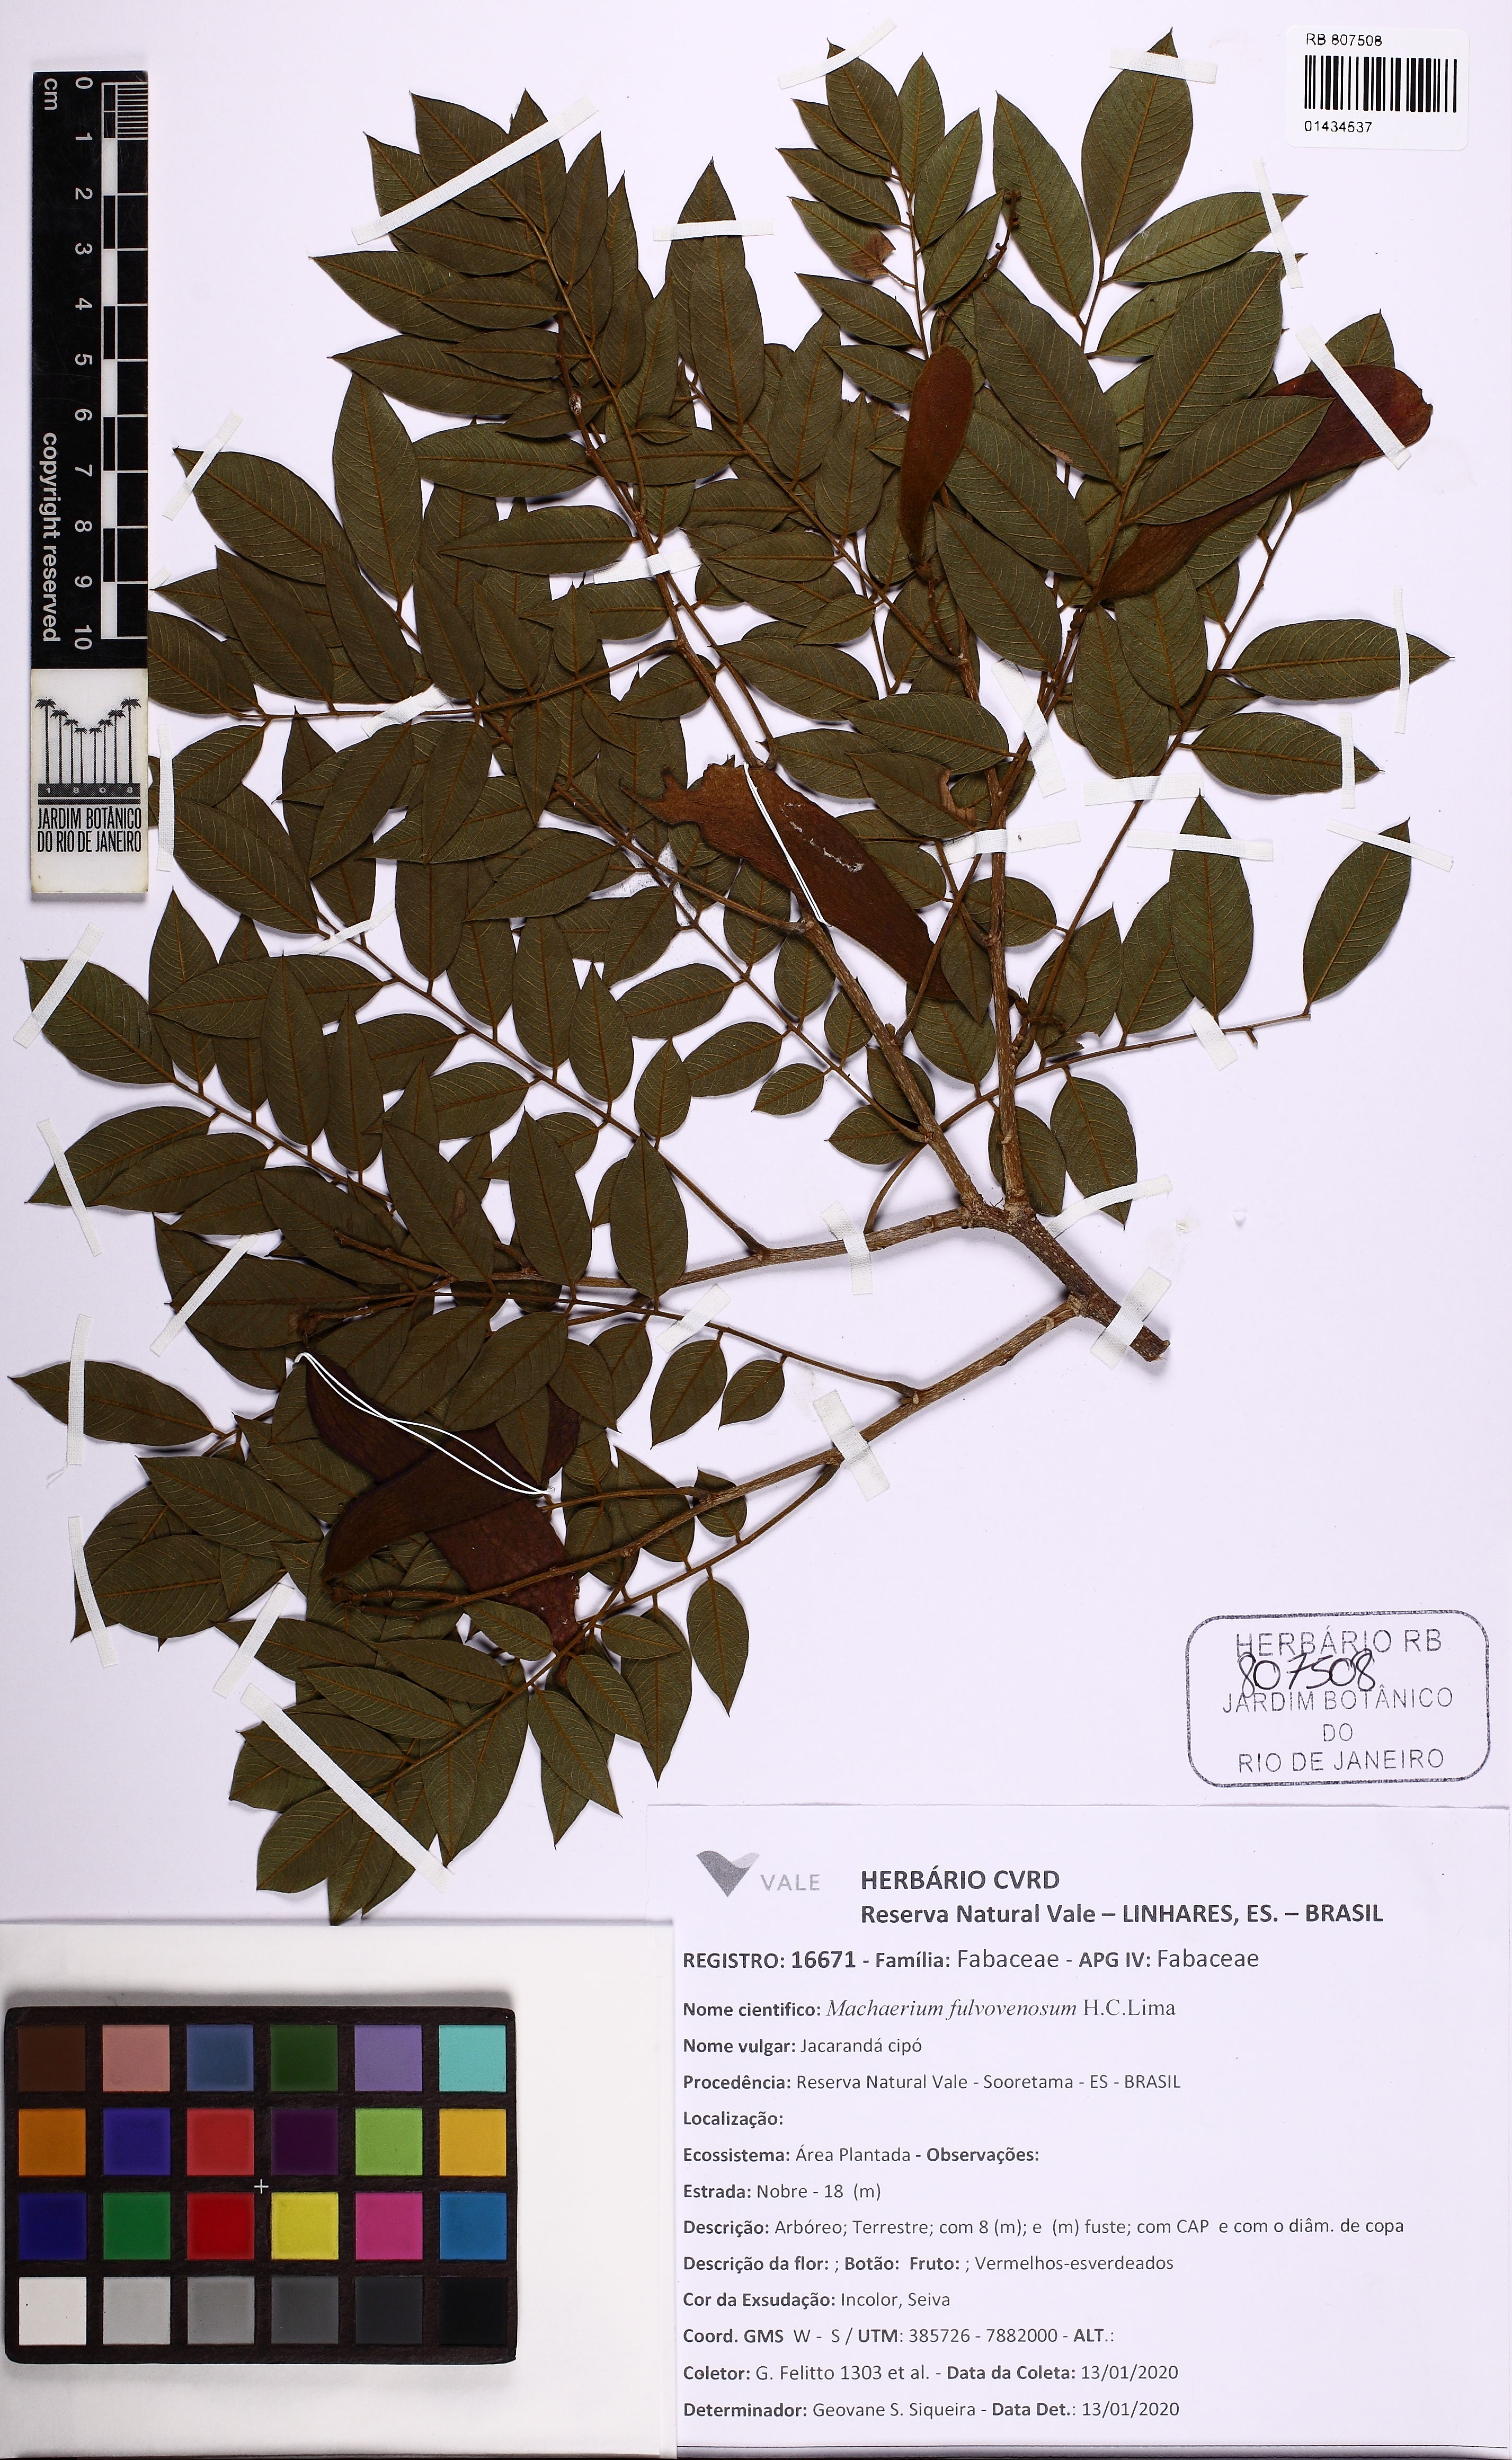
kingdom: Plantae
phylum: Tracheophyta
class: Magnoliopsida
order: Fabales
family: Fabaceae
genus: Machaerium
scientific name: Machaerium fulvovenosum
